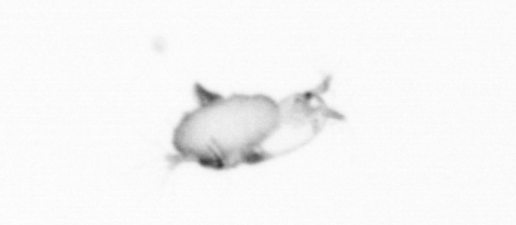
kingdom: Animalia
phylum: Arthropoda
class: Copepoda
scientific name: Copepoda
